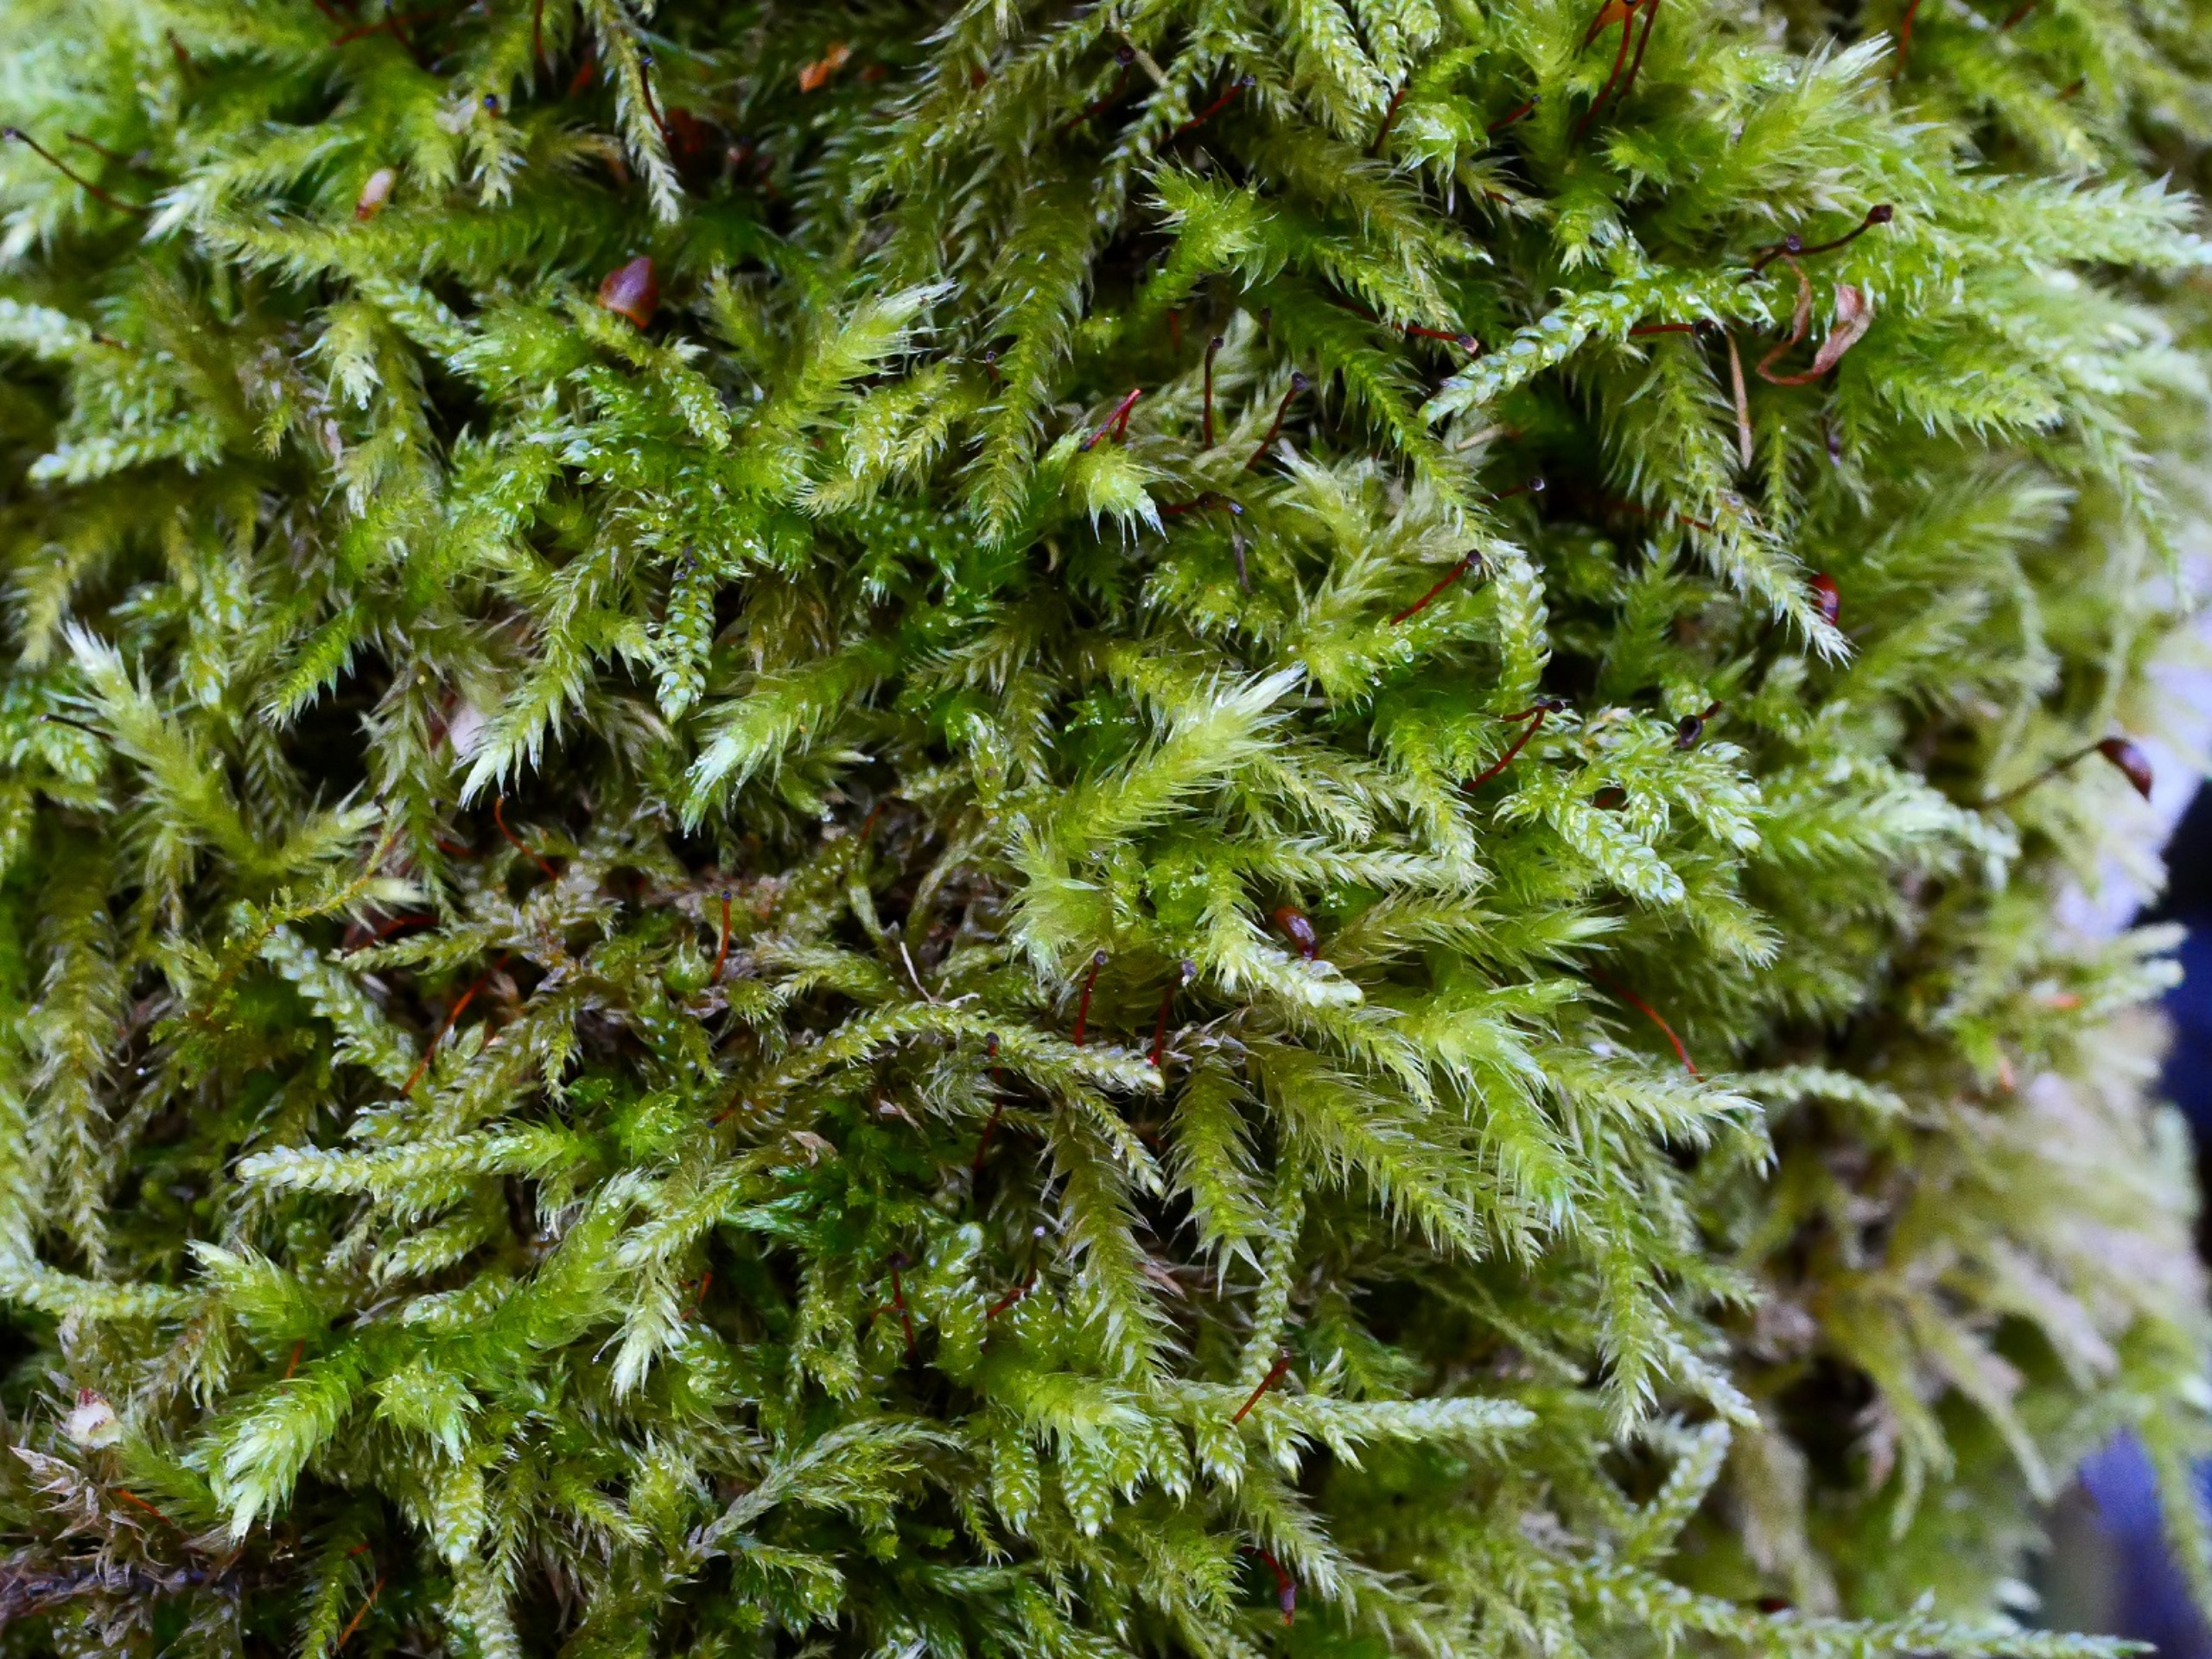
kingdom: Plantae
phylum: Bryophyta
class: Bryopsida
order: Hypnales
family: Brachytheciaceae
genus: Brachythecium
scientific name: Brachythecium salebrosum
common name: Skov-kortkapsel
